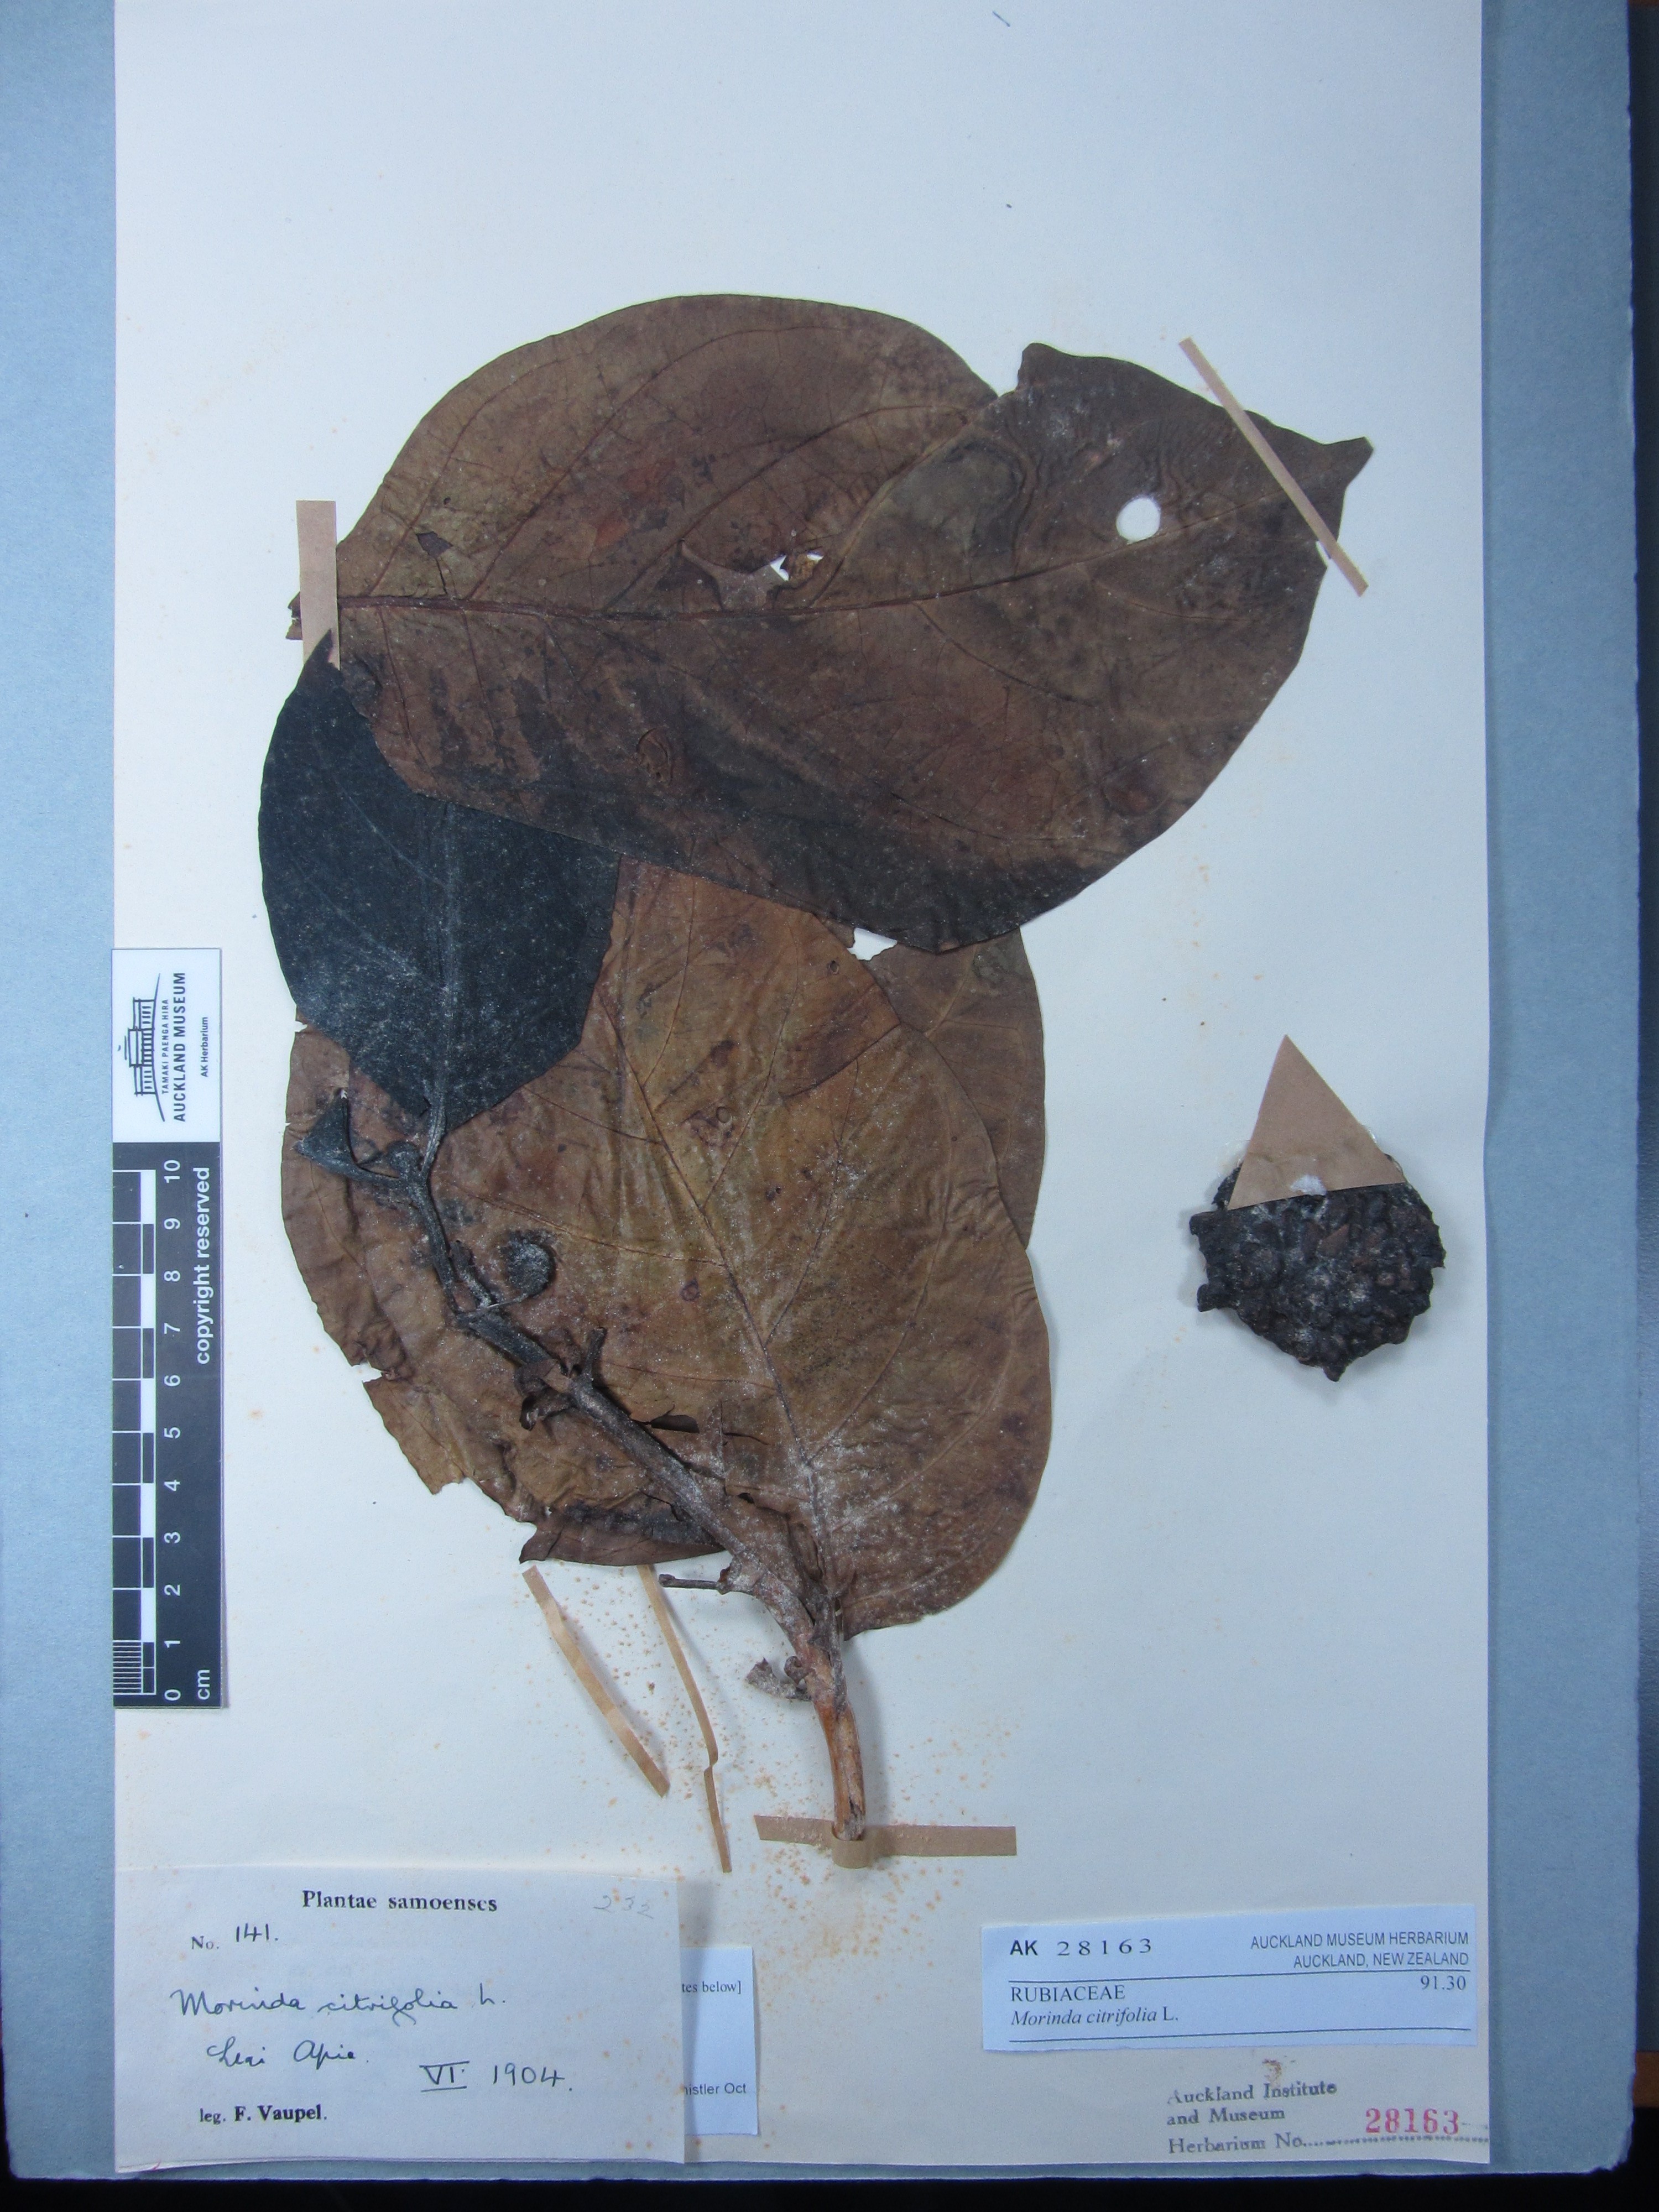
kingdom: Plantae
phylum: Tracheophyta
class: Magnoliopsida
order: Gentianales
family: Rubiaceae
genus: Morinda
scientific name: Morinda citrifolia
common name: Indian-mulberry
